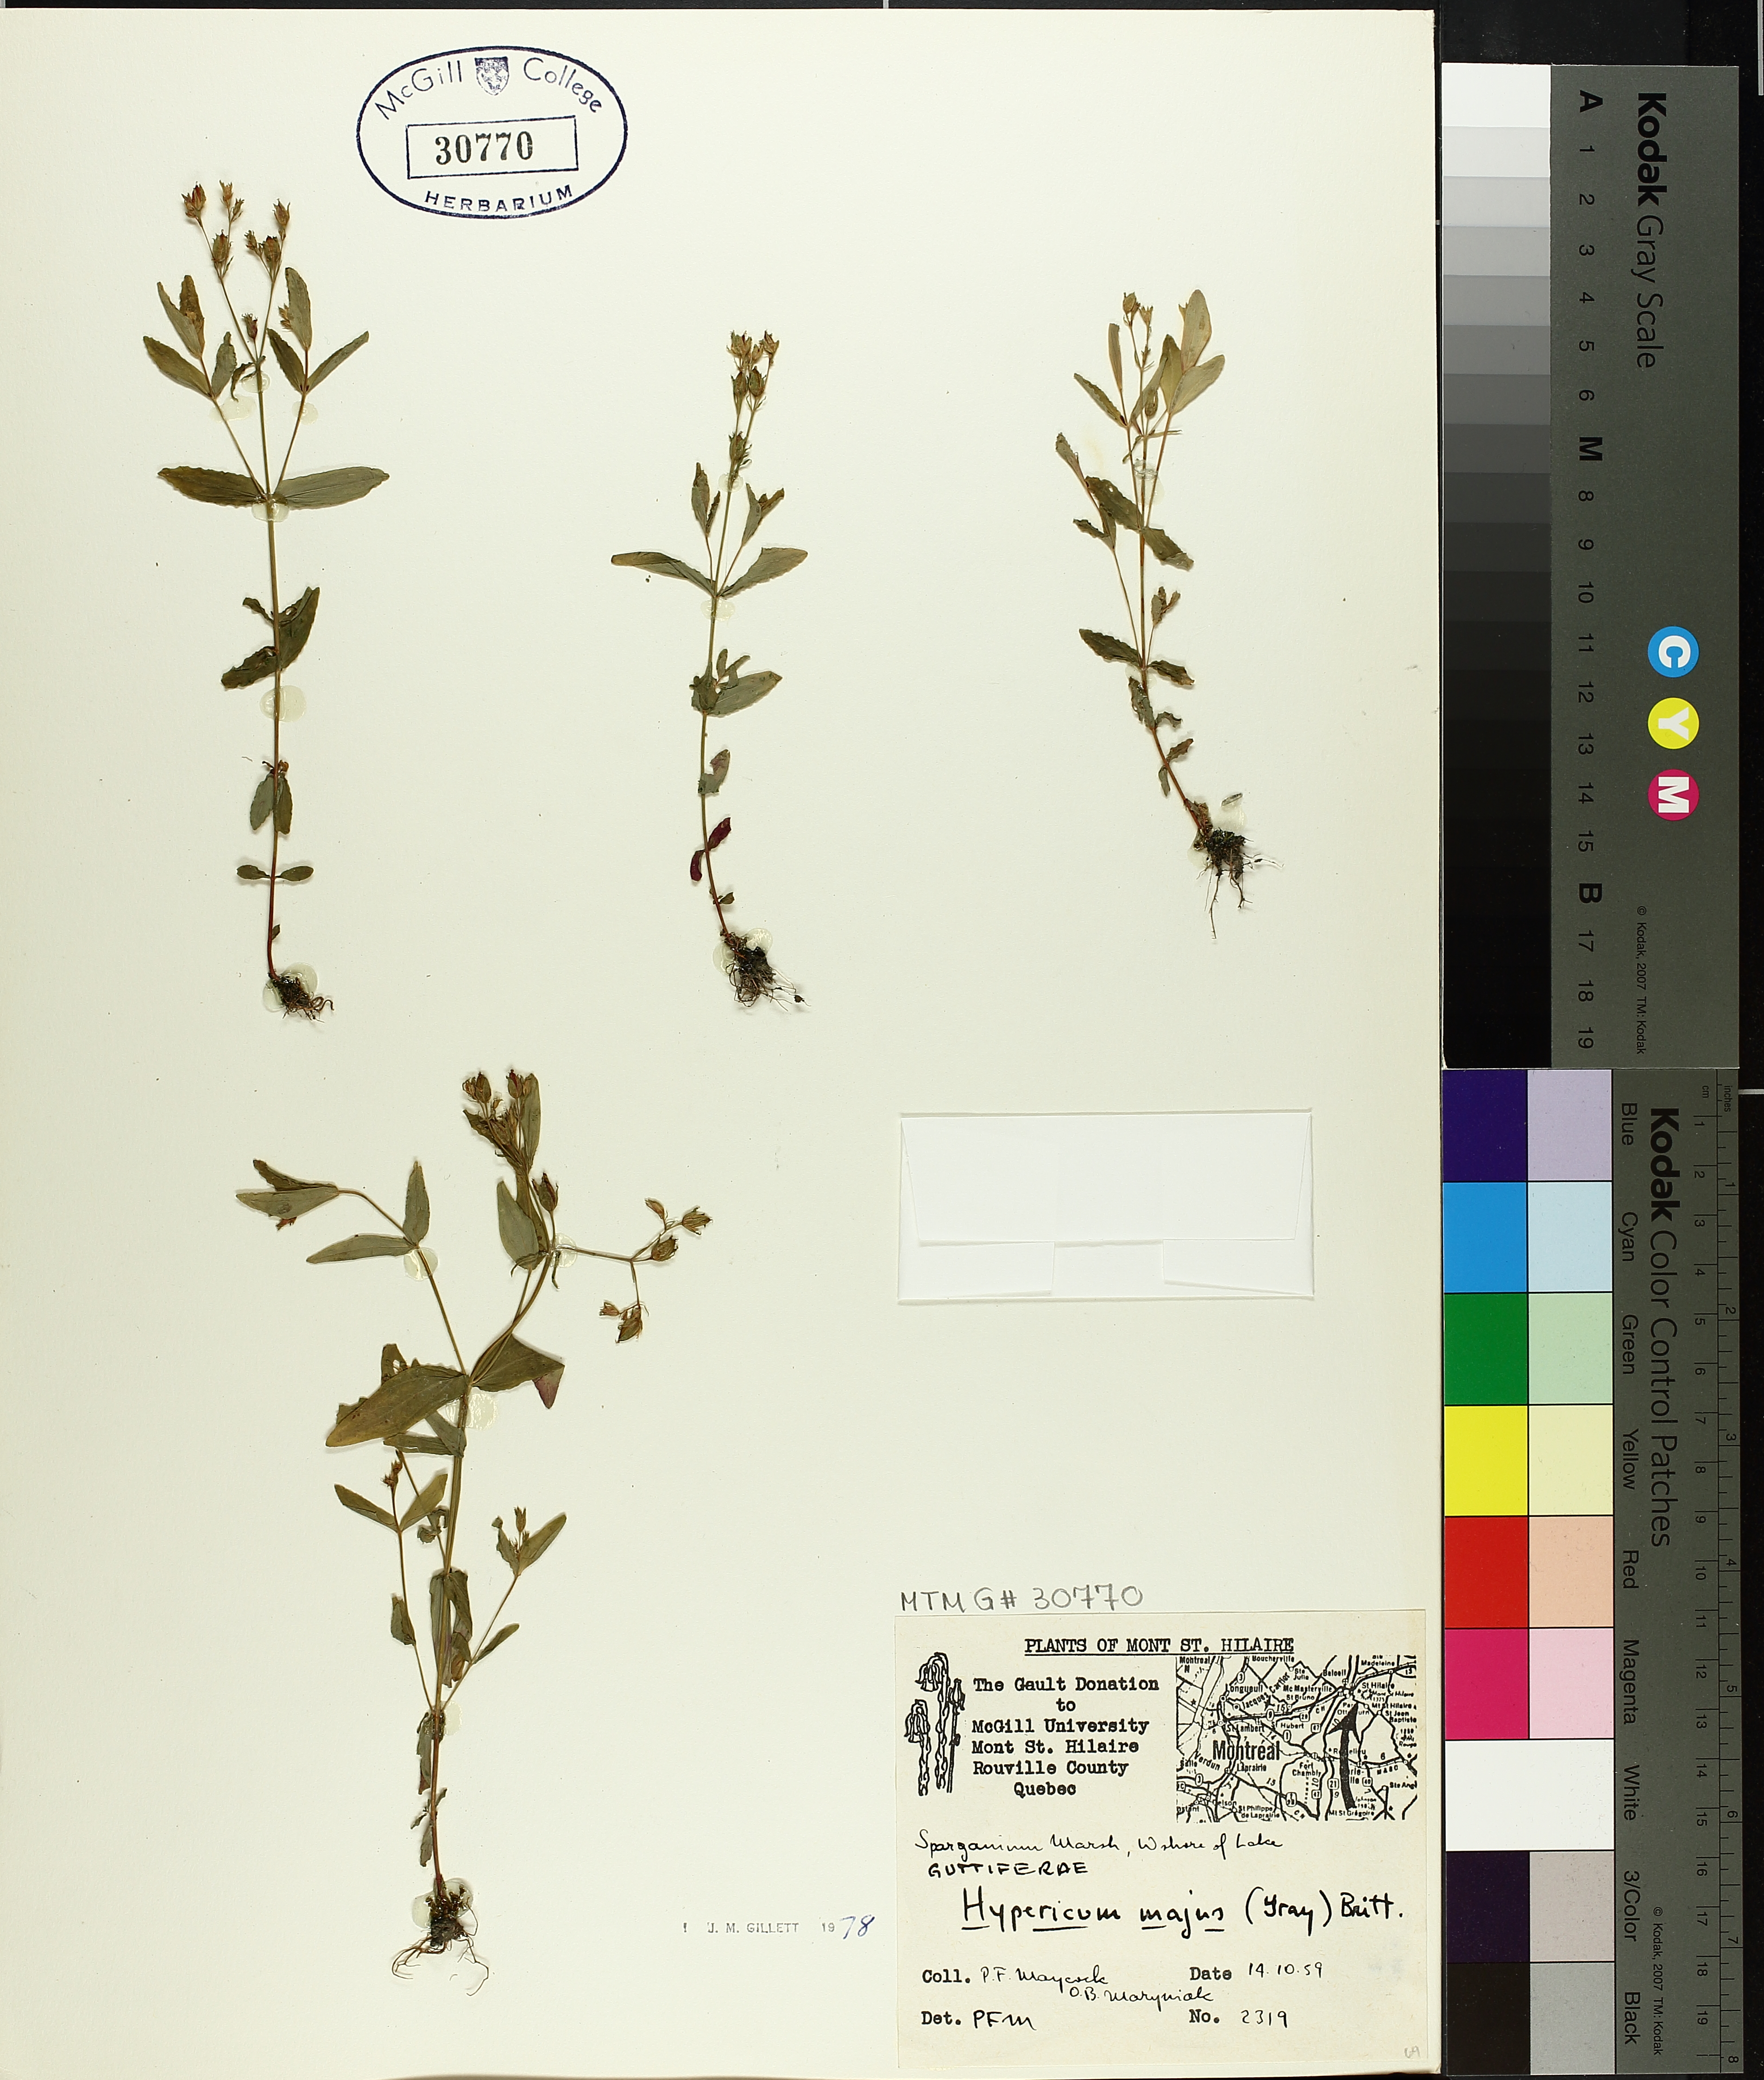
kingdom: Plantae
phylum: Tracheophyta
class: Magnoliopsida
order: Malpighiales
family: Hypericaceae
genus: Hypericum
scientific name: Hypericum majus
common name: Greater canadian st. john's-wort
